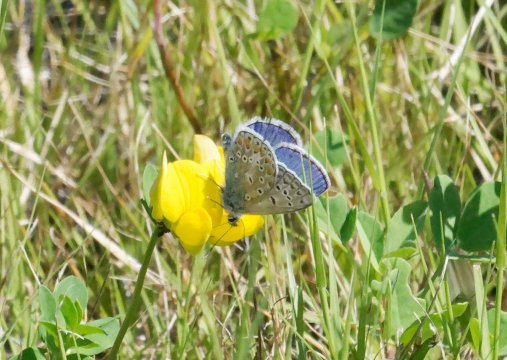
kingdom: Animalia
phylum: Arthropoda
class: Insecta
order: Lepidoptera
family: Lycaenidae
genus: Polyommatus
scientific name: Polyommatus icarus
